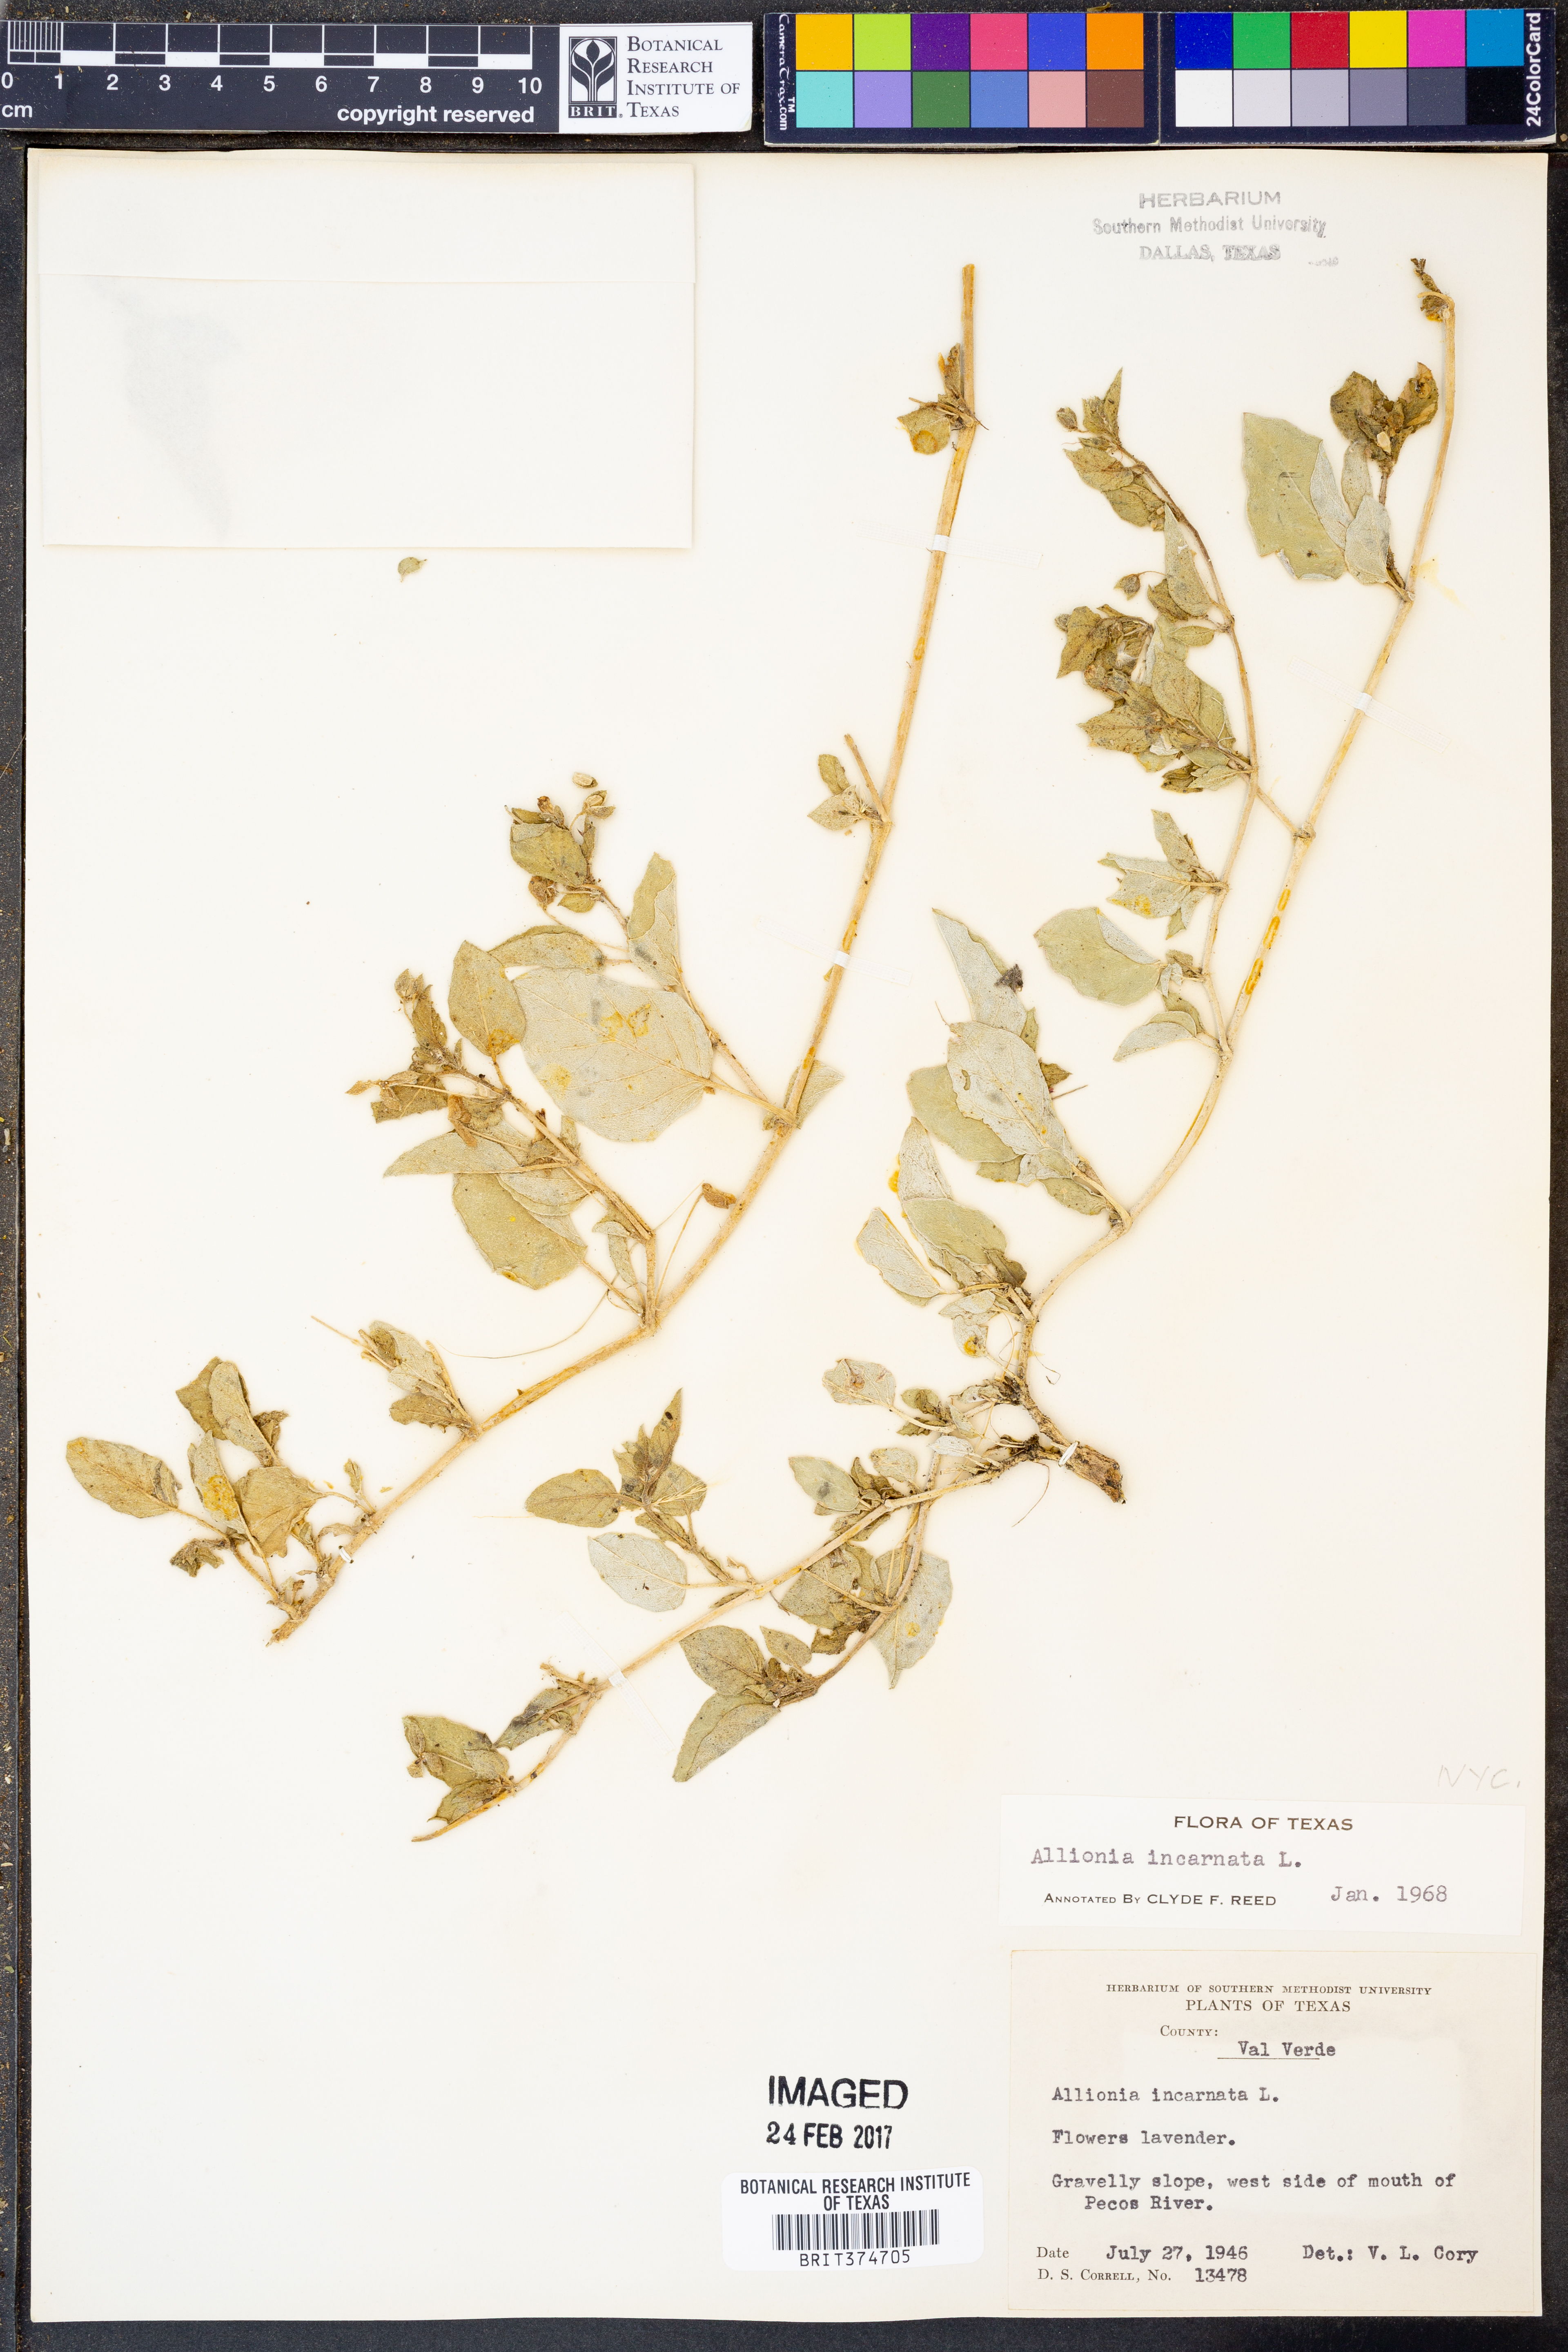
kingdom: Plantae
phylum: Tracheophyta
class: Magnoliopsida
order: Caryophyllales
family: Nyctaginaceae
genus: Allionia
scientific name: Allionia incarnata
